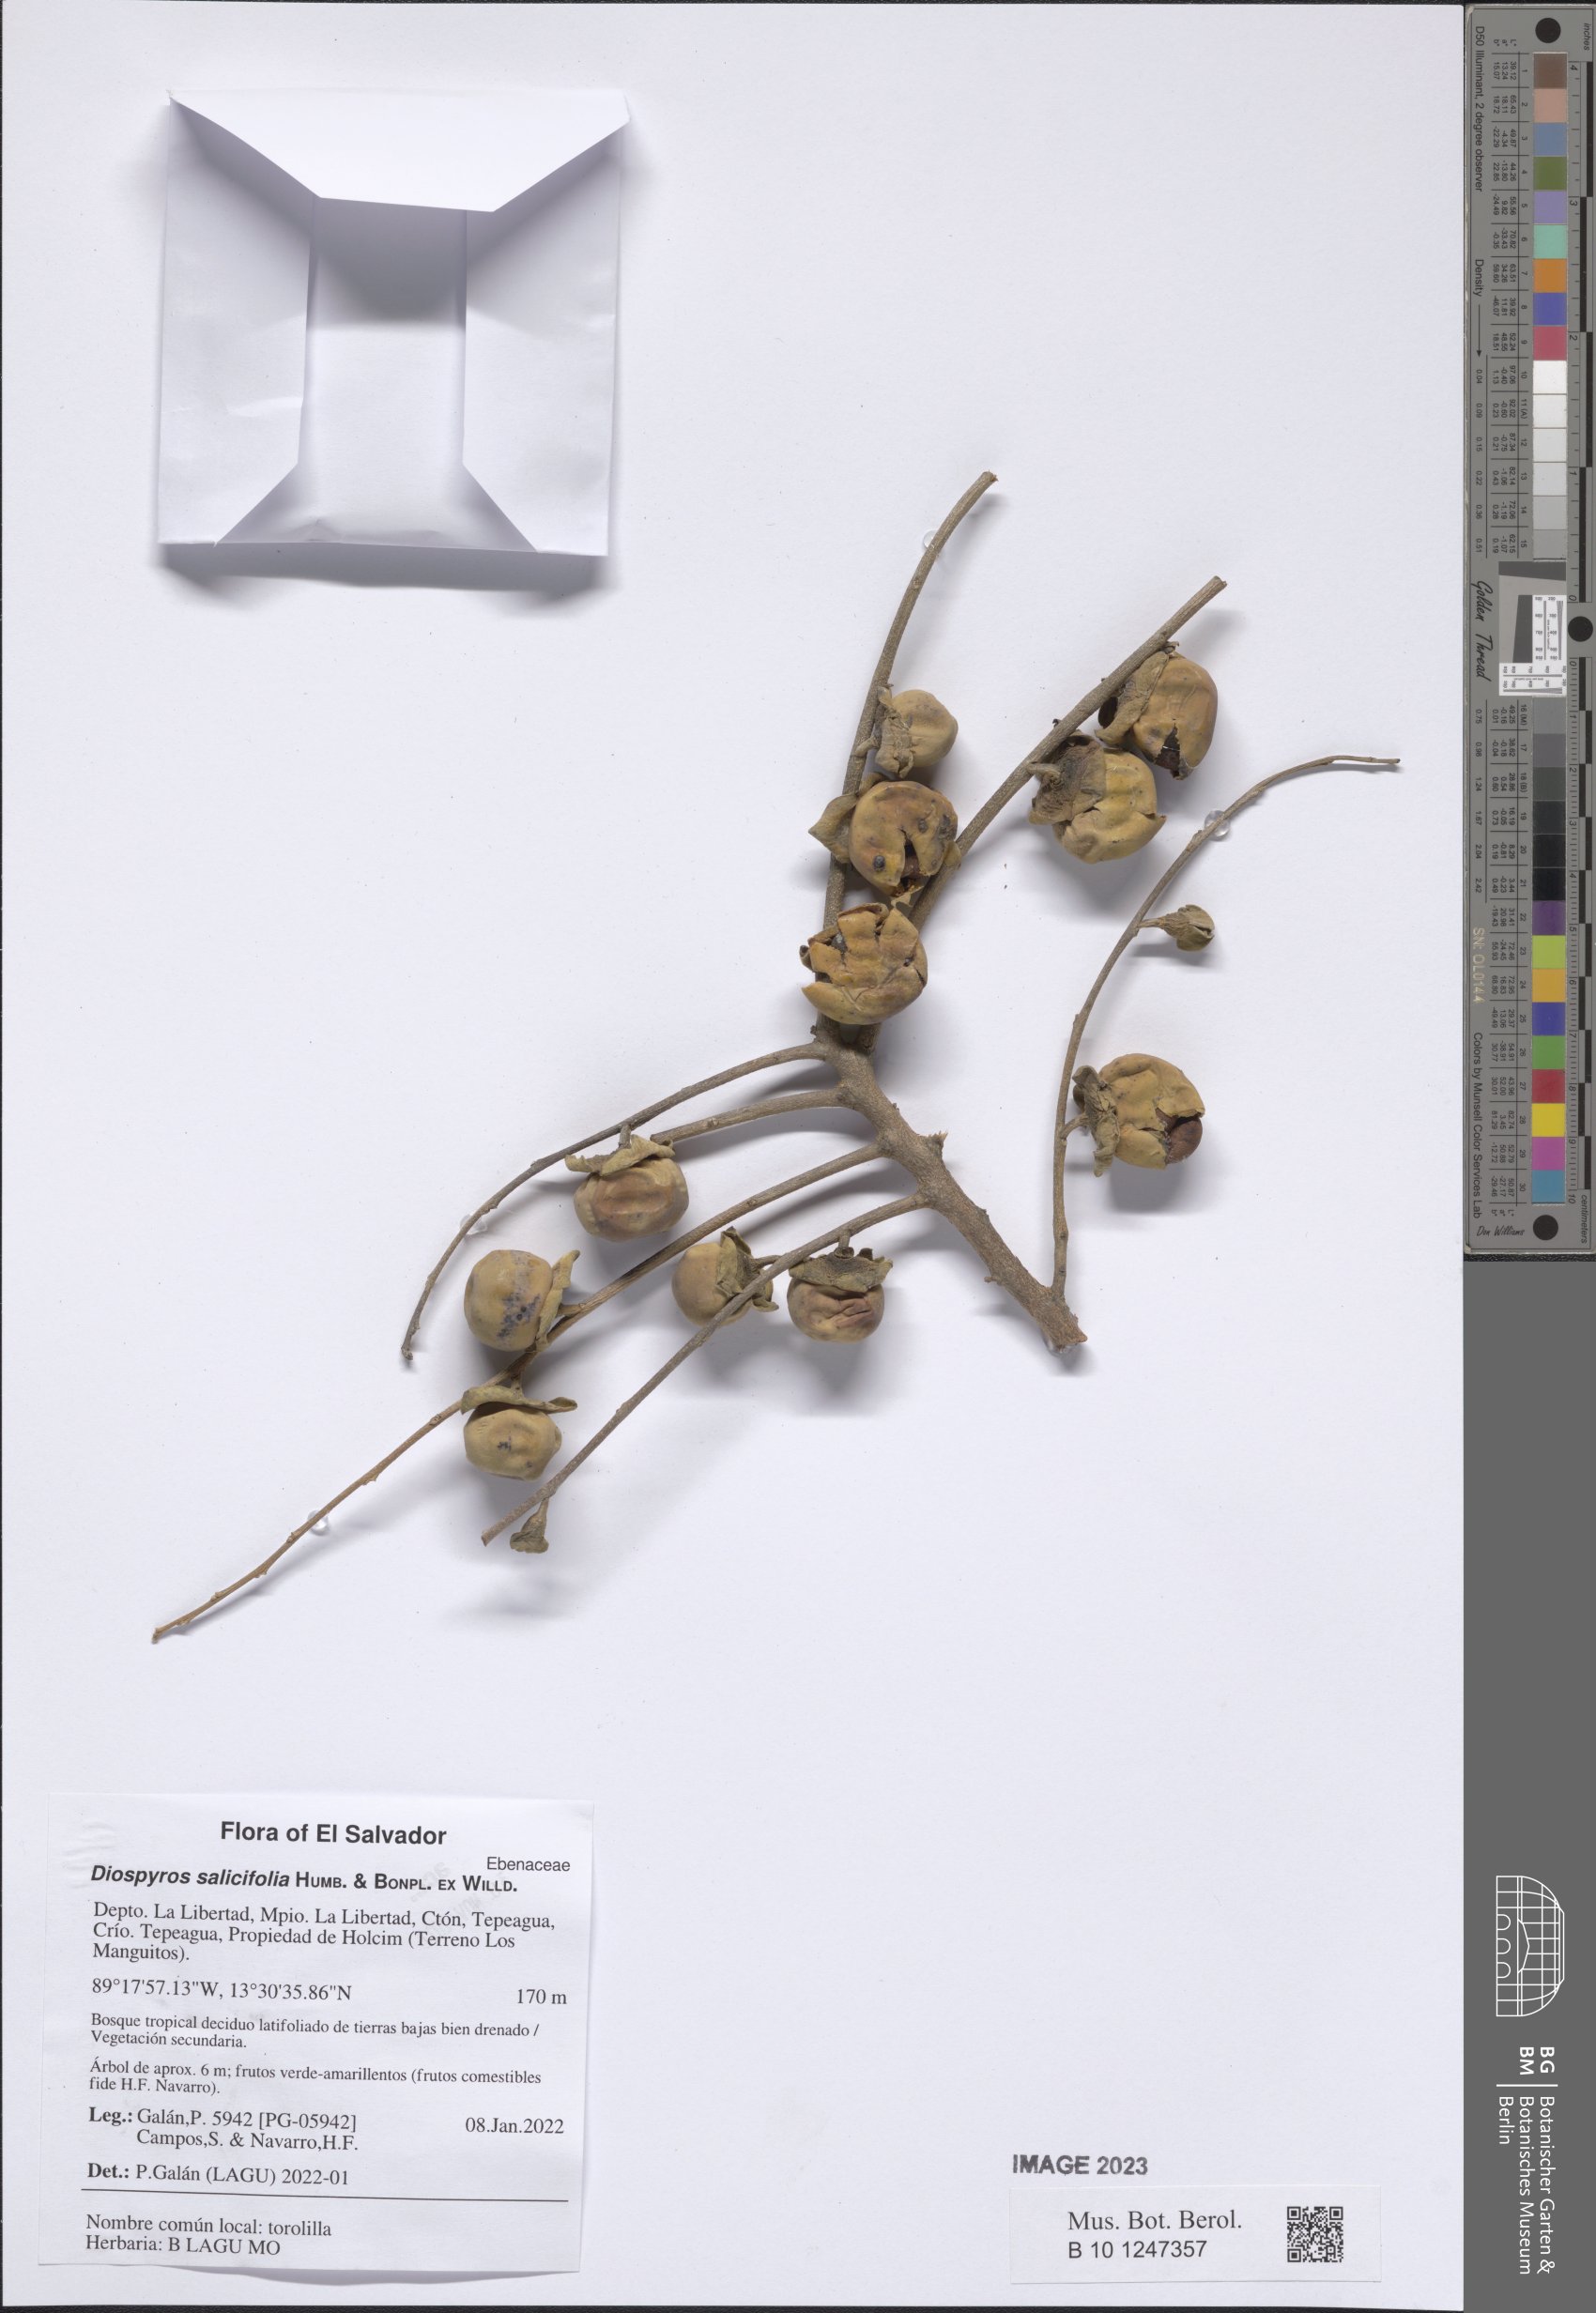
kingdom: Plantae
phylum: Tracheophyta
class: Magnoliopsida
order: Ericales
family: Ebenaceae
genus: Diospyros
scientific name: Diospyros salicifolia
